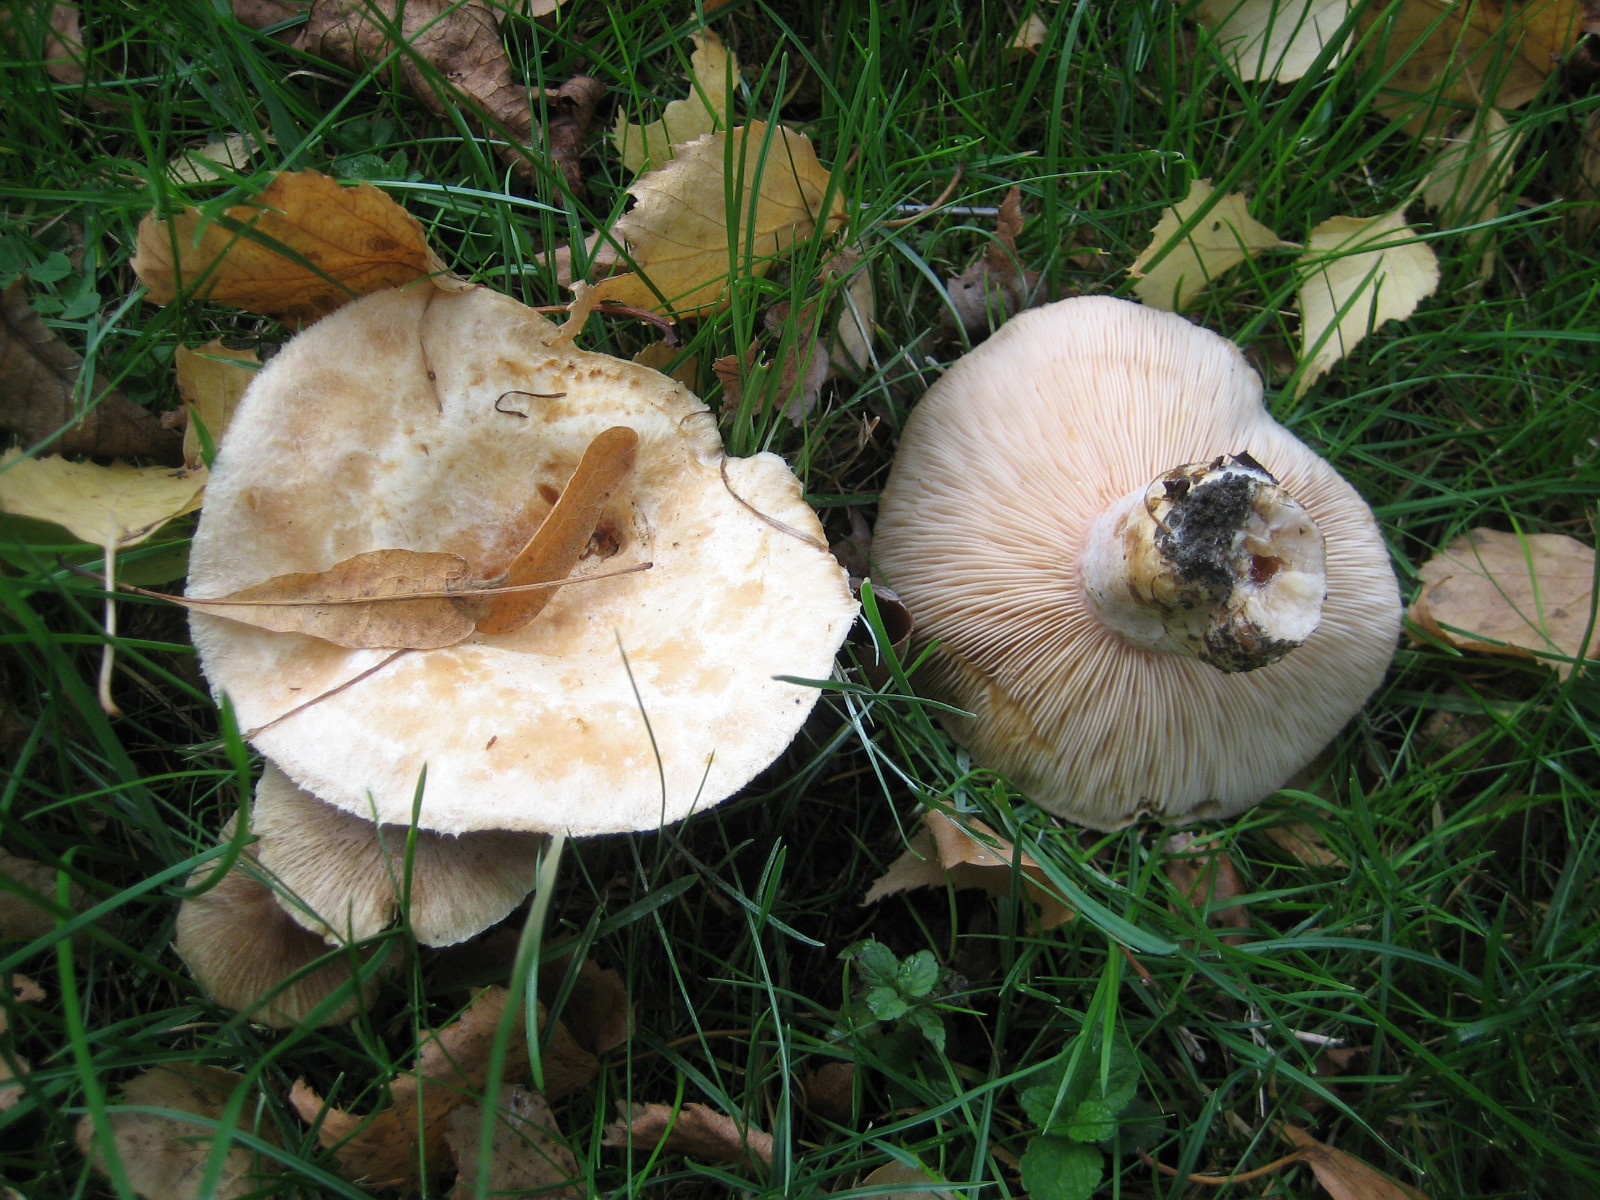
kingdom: Fungi
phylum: Basidiomycota
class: Agaricomycetes
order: Russulales
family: Russulaceae
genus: Lactarius
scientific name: Lactarius pubescens
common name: dunet mælkehat
